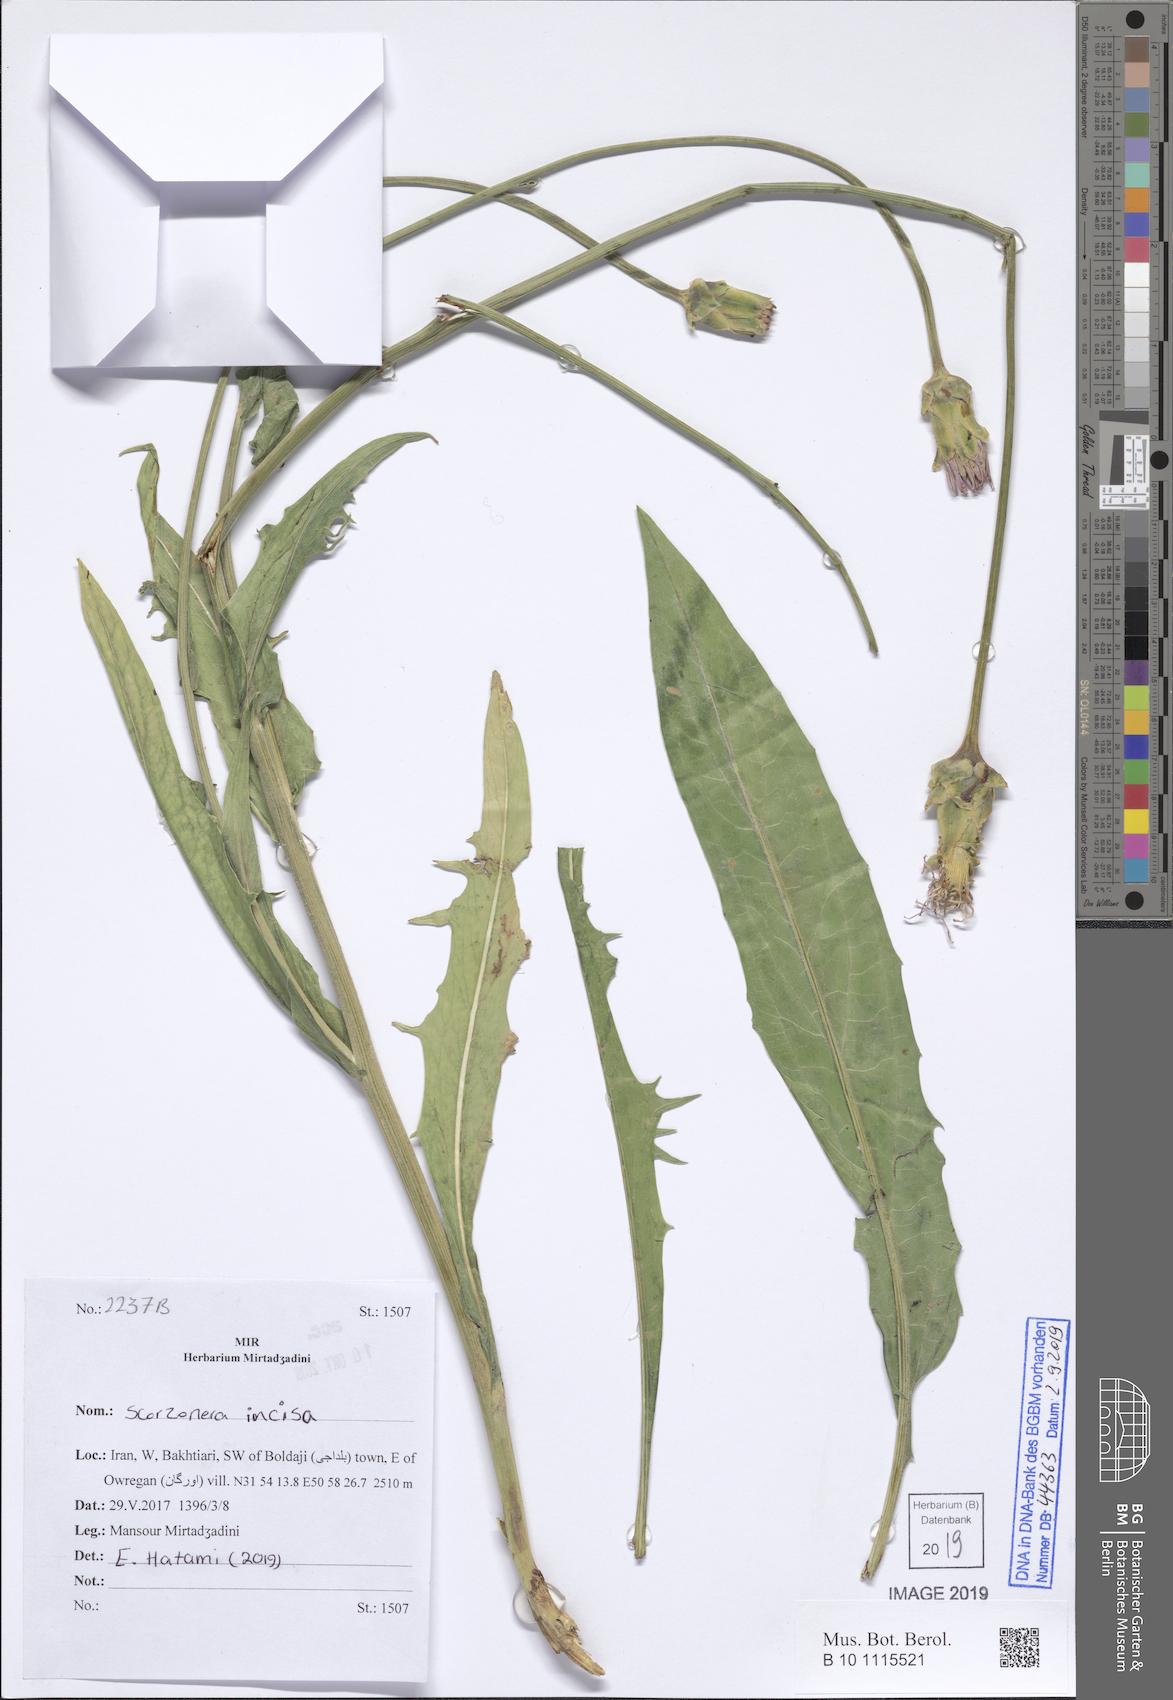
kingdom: Plantae
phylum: Tracheophyta
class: Magnoliopsida
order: Asterales
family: Asteraceae
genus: Aslia
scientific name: Aslia incisa
